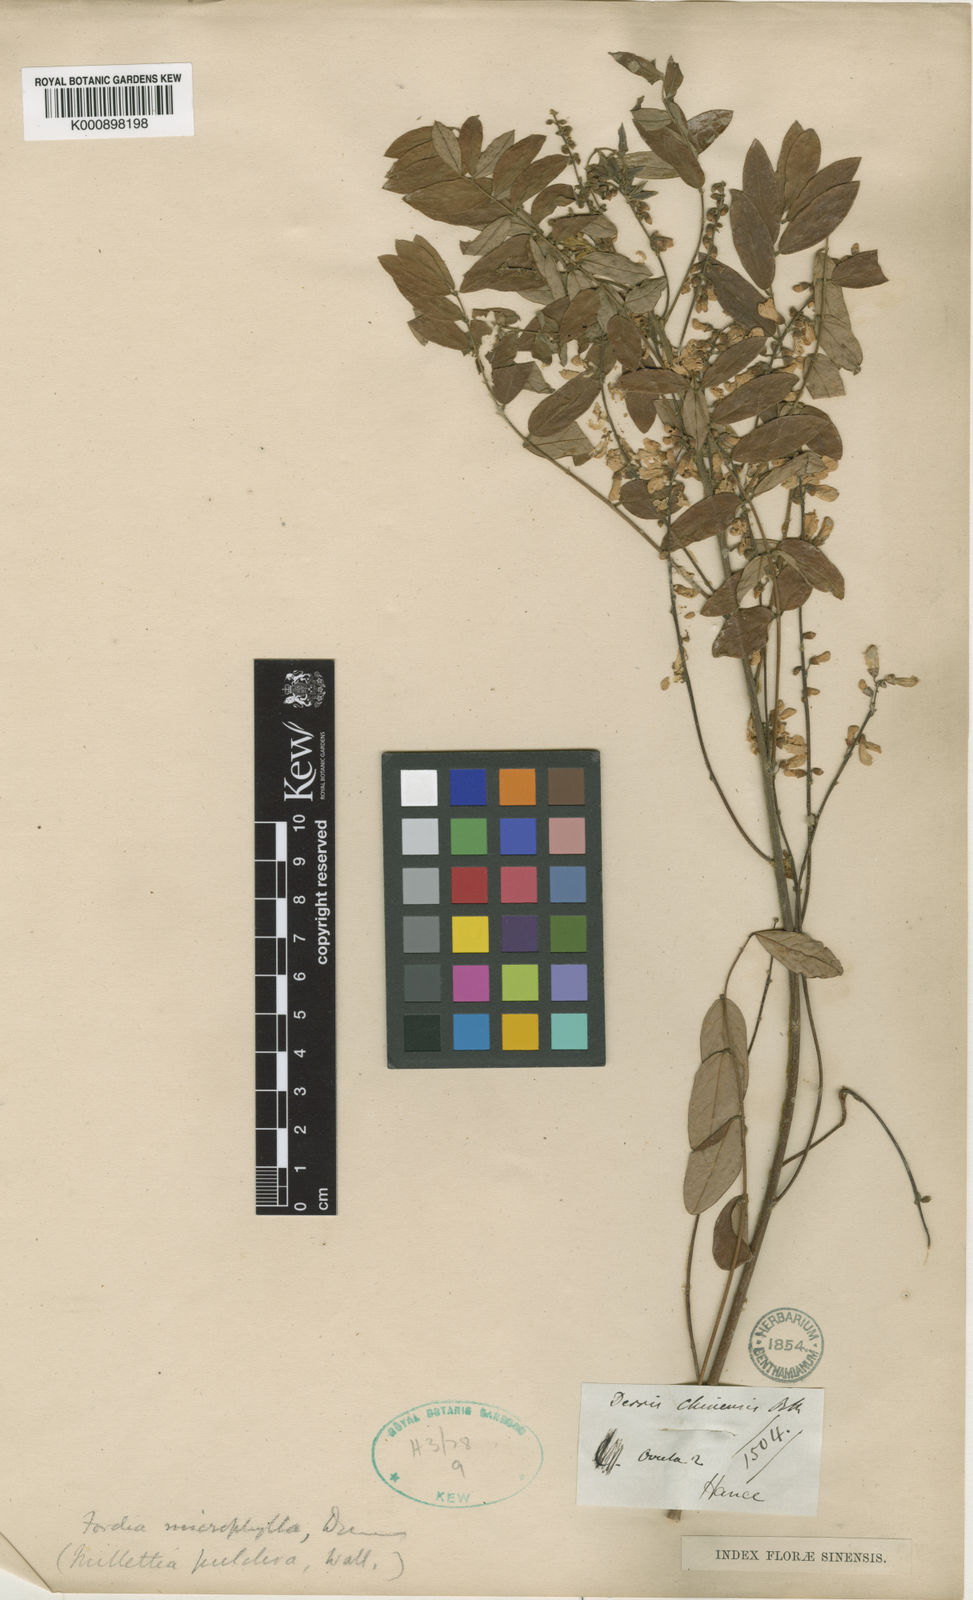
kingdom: Plantae
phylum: Tracheophyta
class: Magnoliopsida
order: Fabales
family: Fabaceae
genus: Millettia
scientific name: Millettia pulchra
